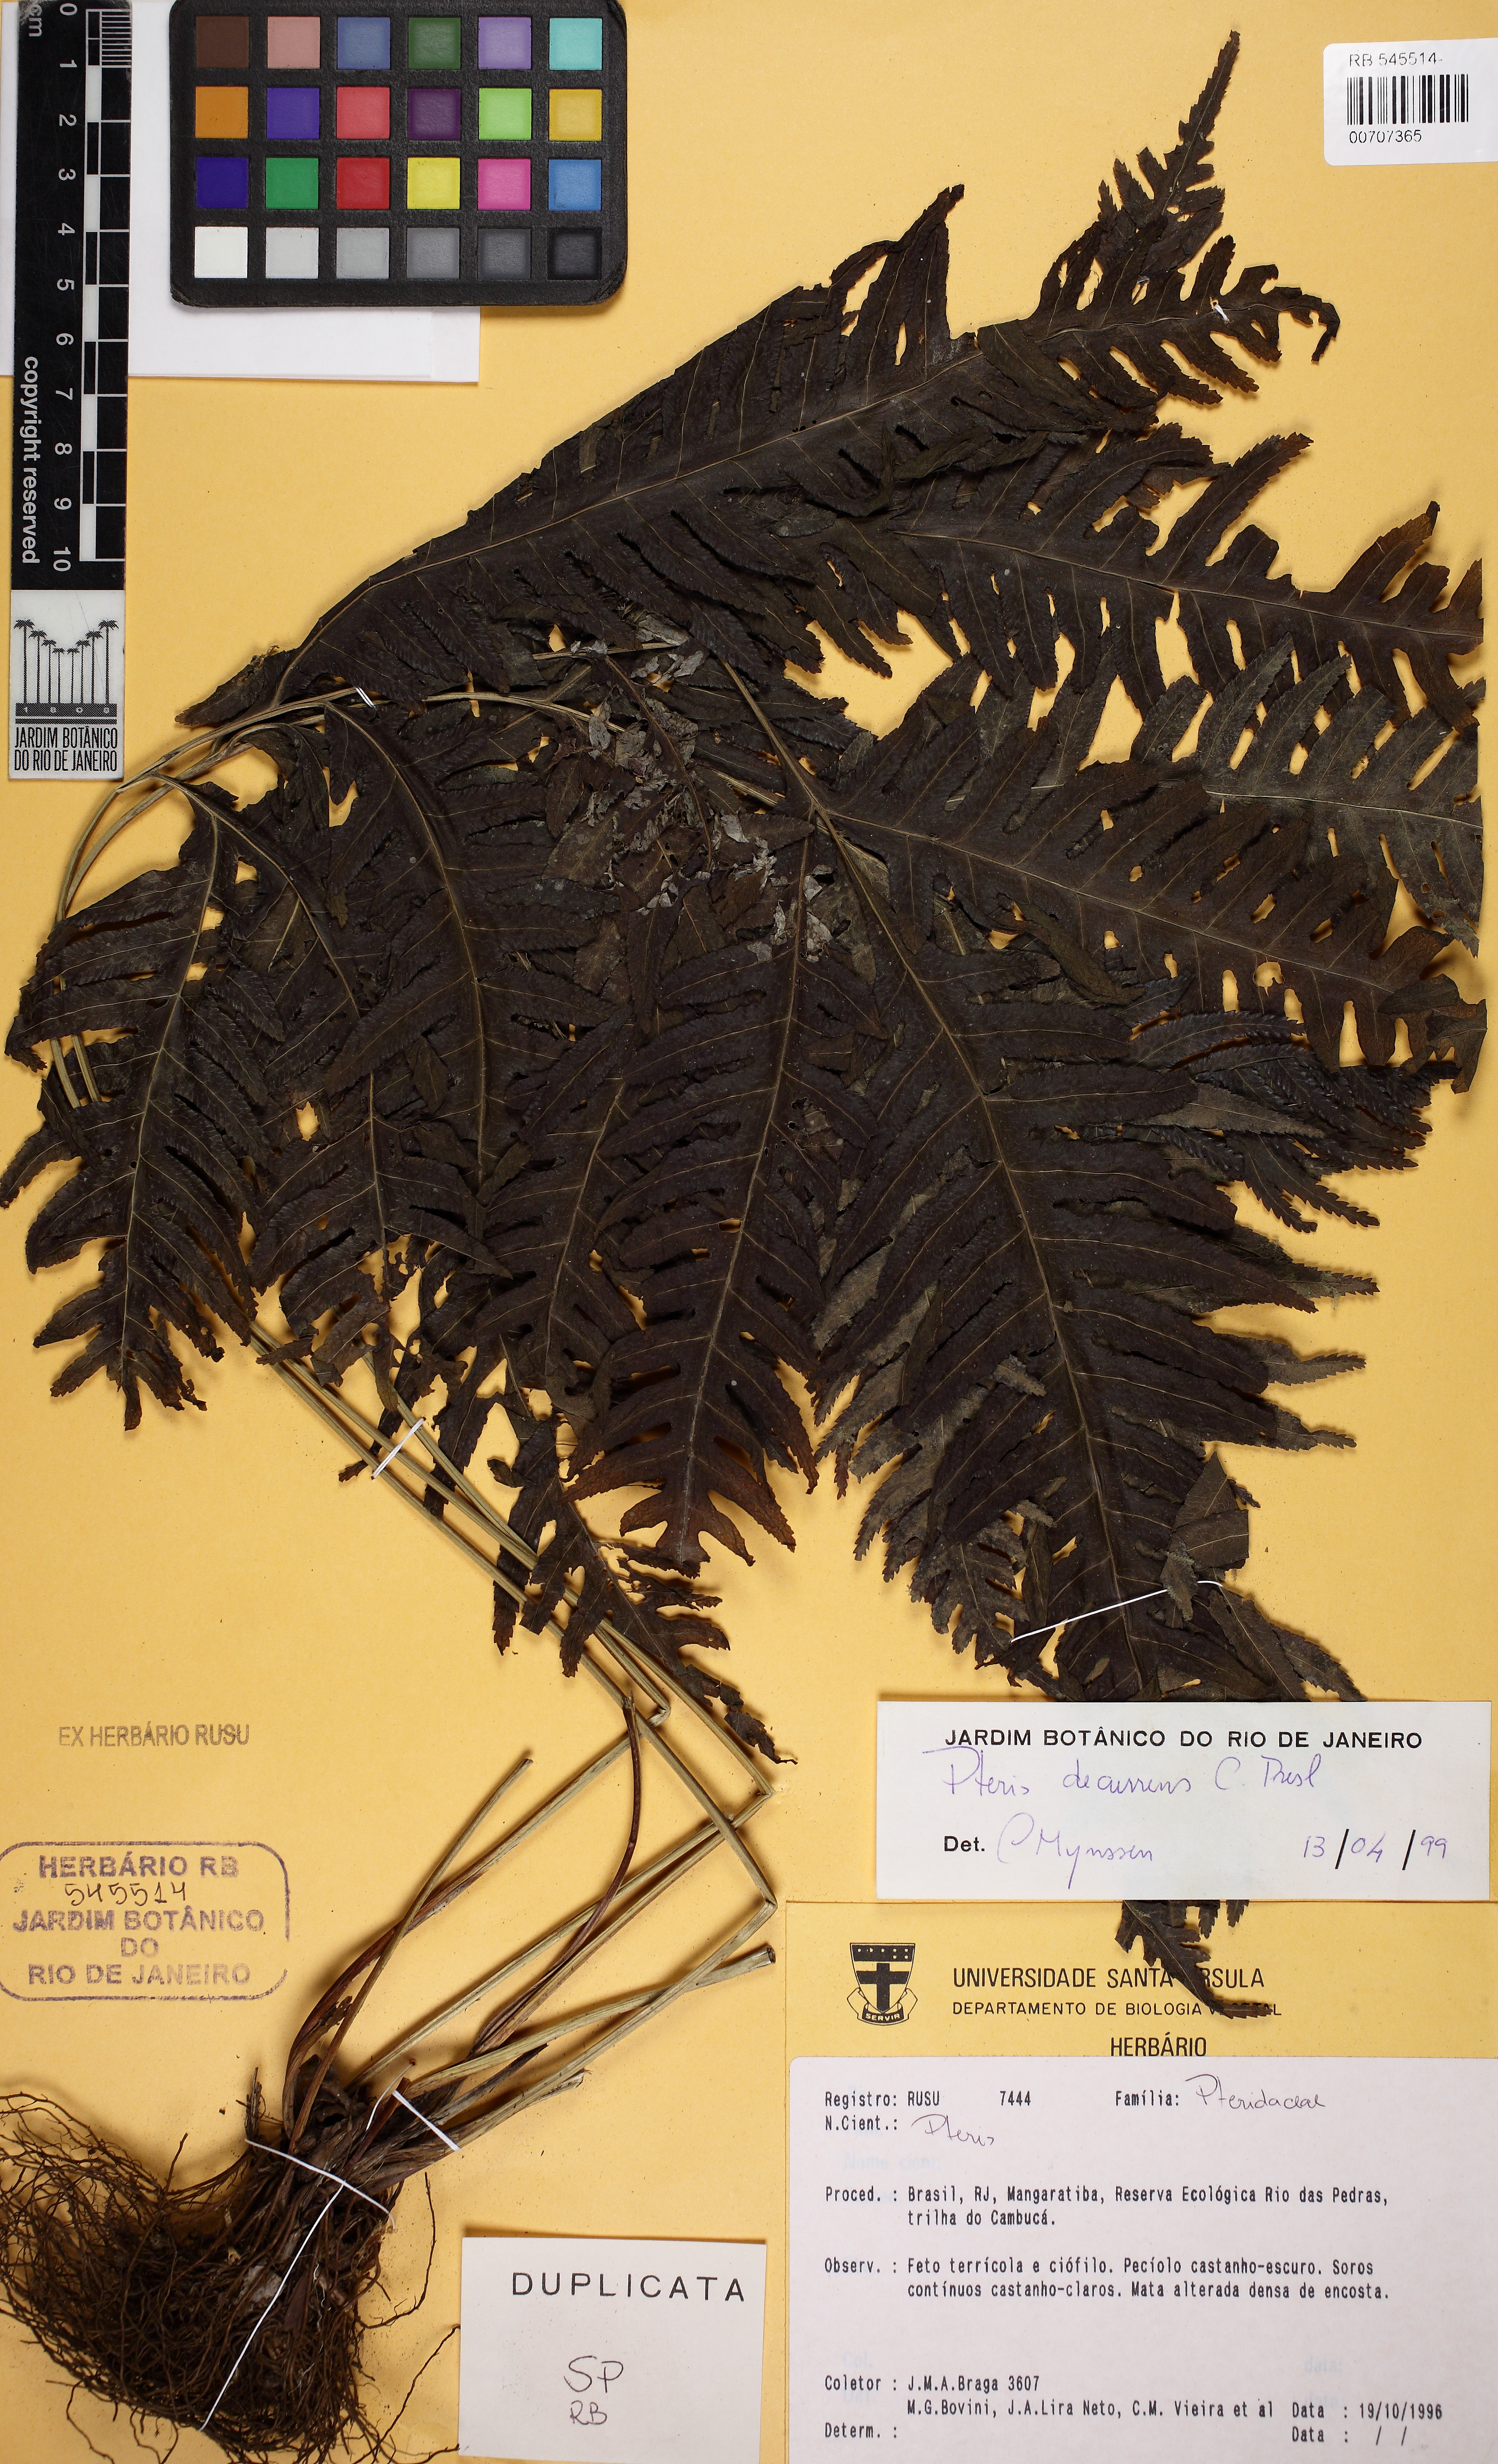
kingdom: Plantae
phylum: Tracheophyta
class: Polypodiopsida
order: Polypodiales
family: Pteridaceae
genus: Pteris
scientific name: Pteris decurrens
